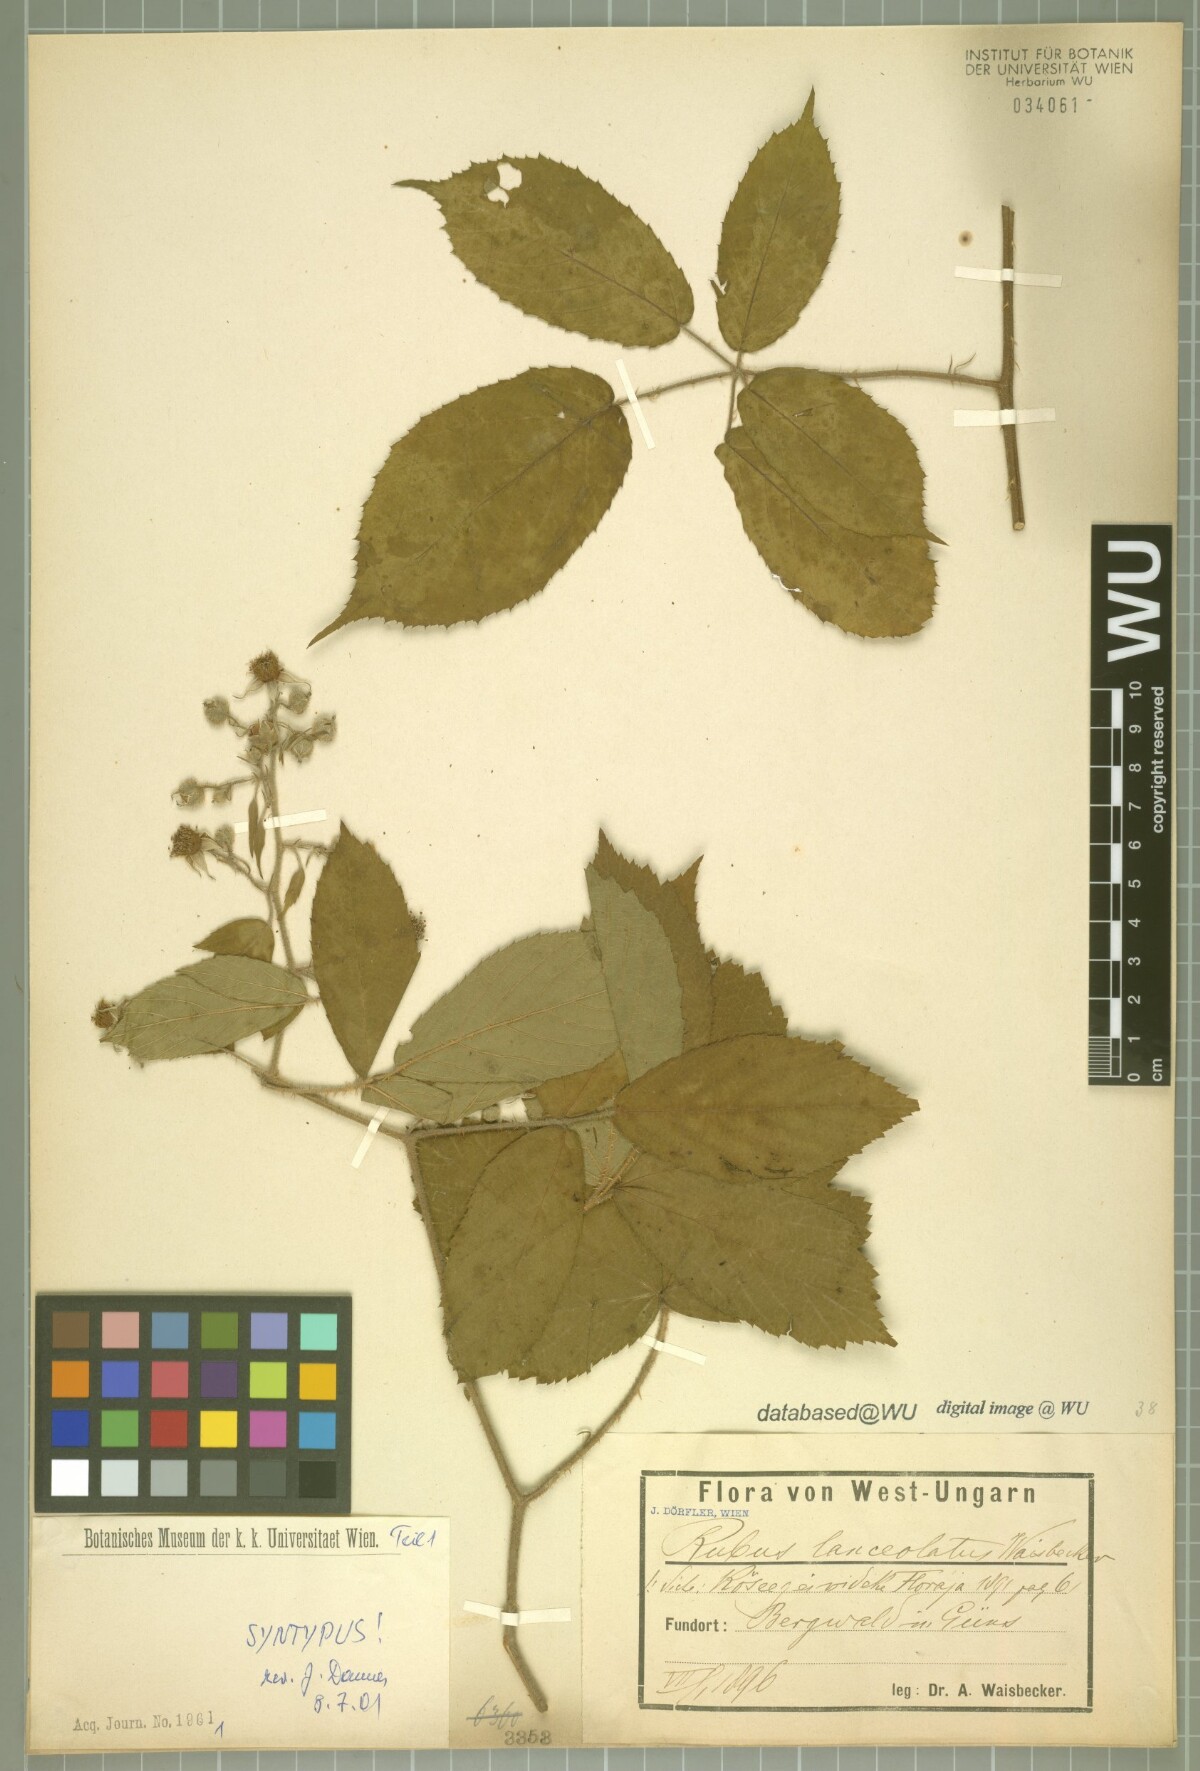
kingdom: Plantae
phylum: Tracheophyta
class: Magnoliopsida
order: Rosales
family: Rosaceae
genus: Rubus
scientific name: Rubus lanceolatus
